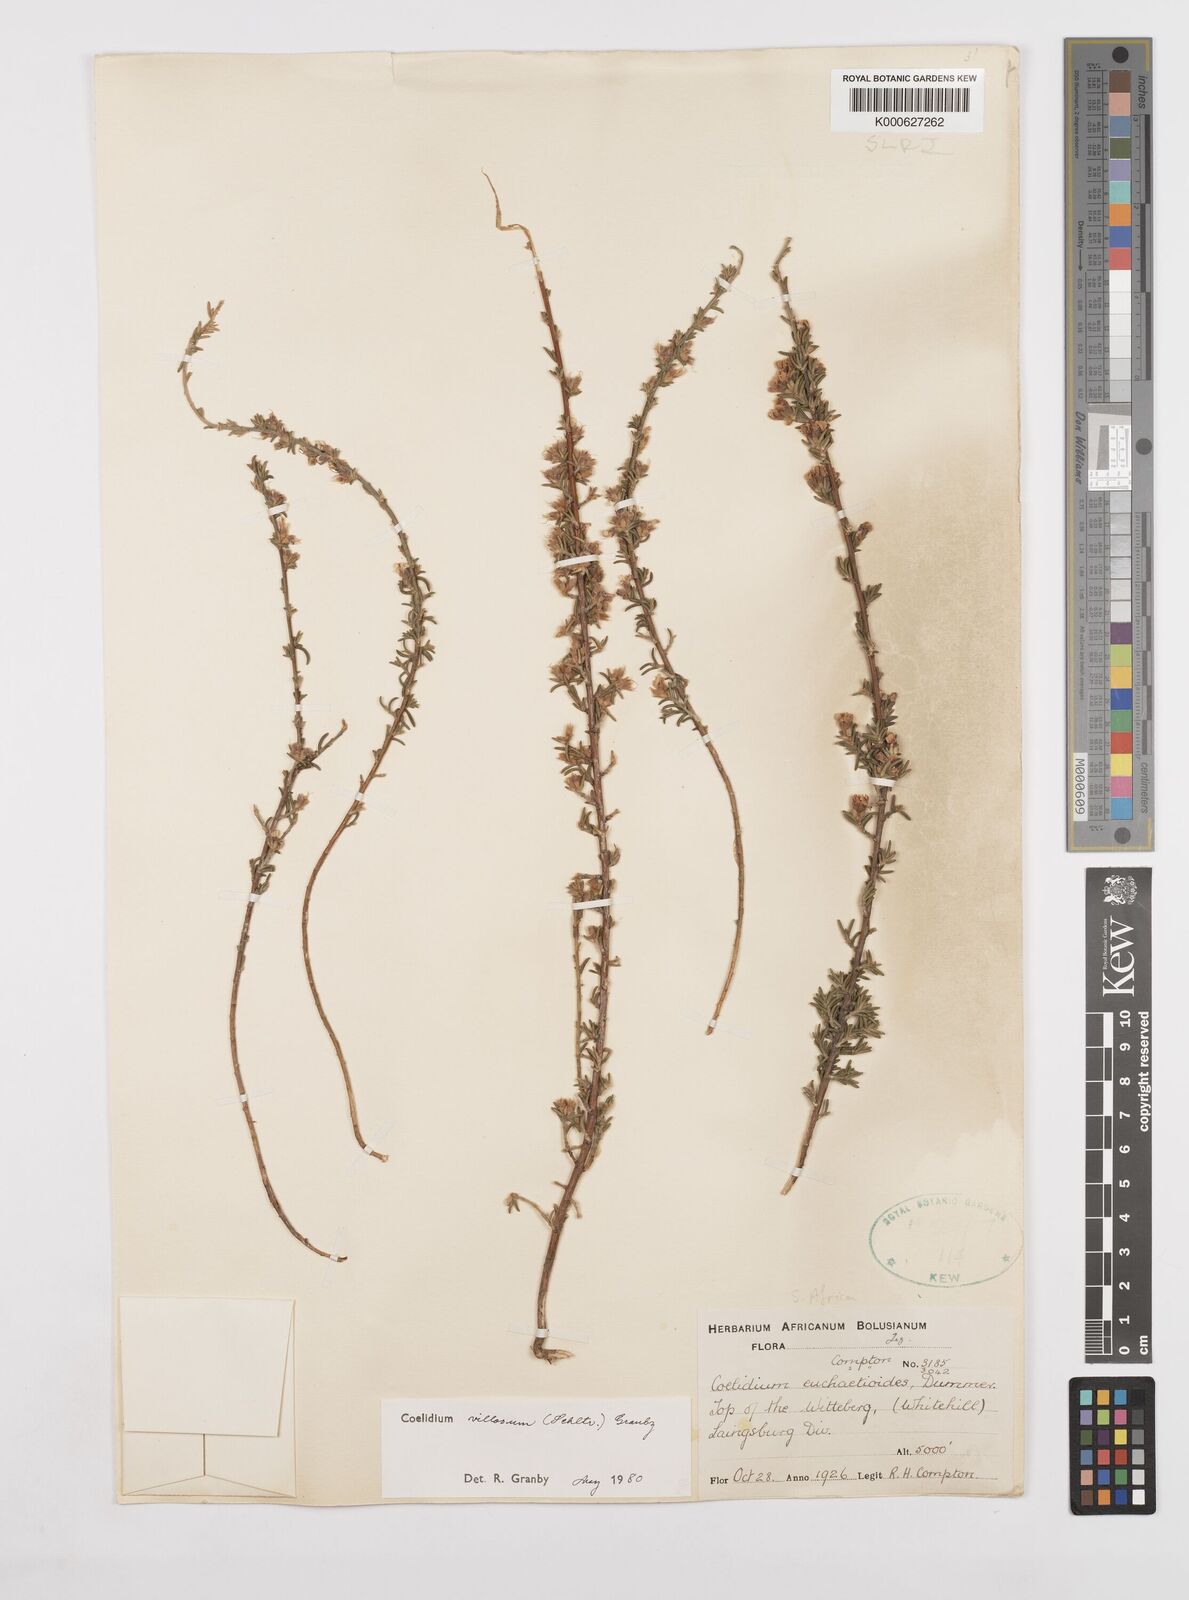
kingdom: Plantae
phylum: Tracheophyta
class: Magnoliopsida
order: Fabales
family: Fabaceae
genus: Amphithalea
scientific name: Amphithalea villosa
